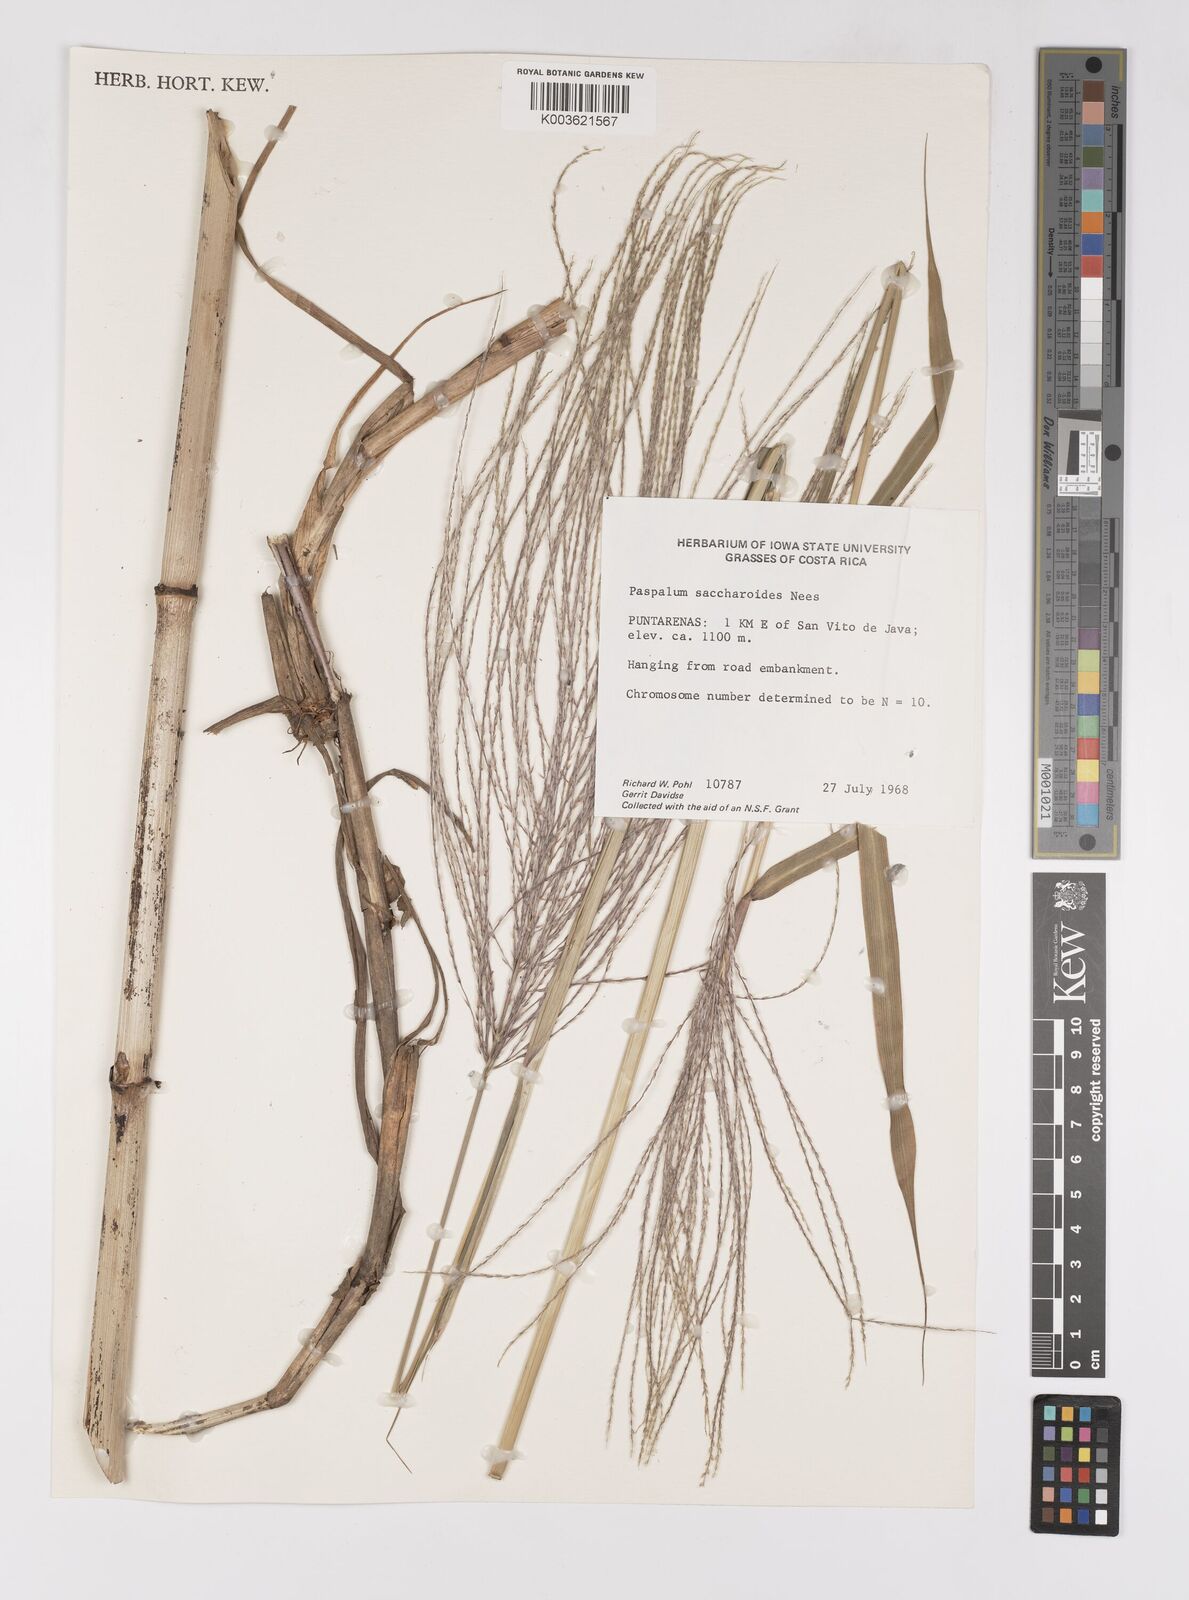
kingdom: Plantae
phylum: Tracheophyta
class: Liliopsida
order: Poales
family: Poaceae
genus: Paspalum
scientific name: Paspalum saccharoides
